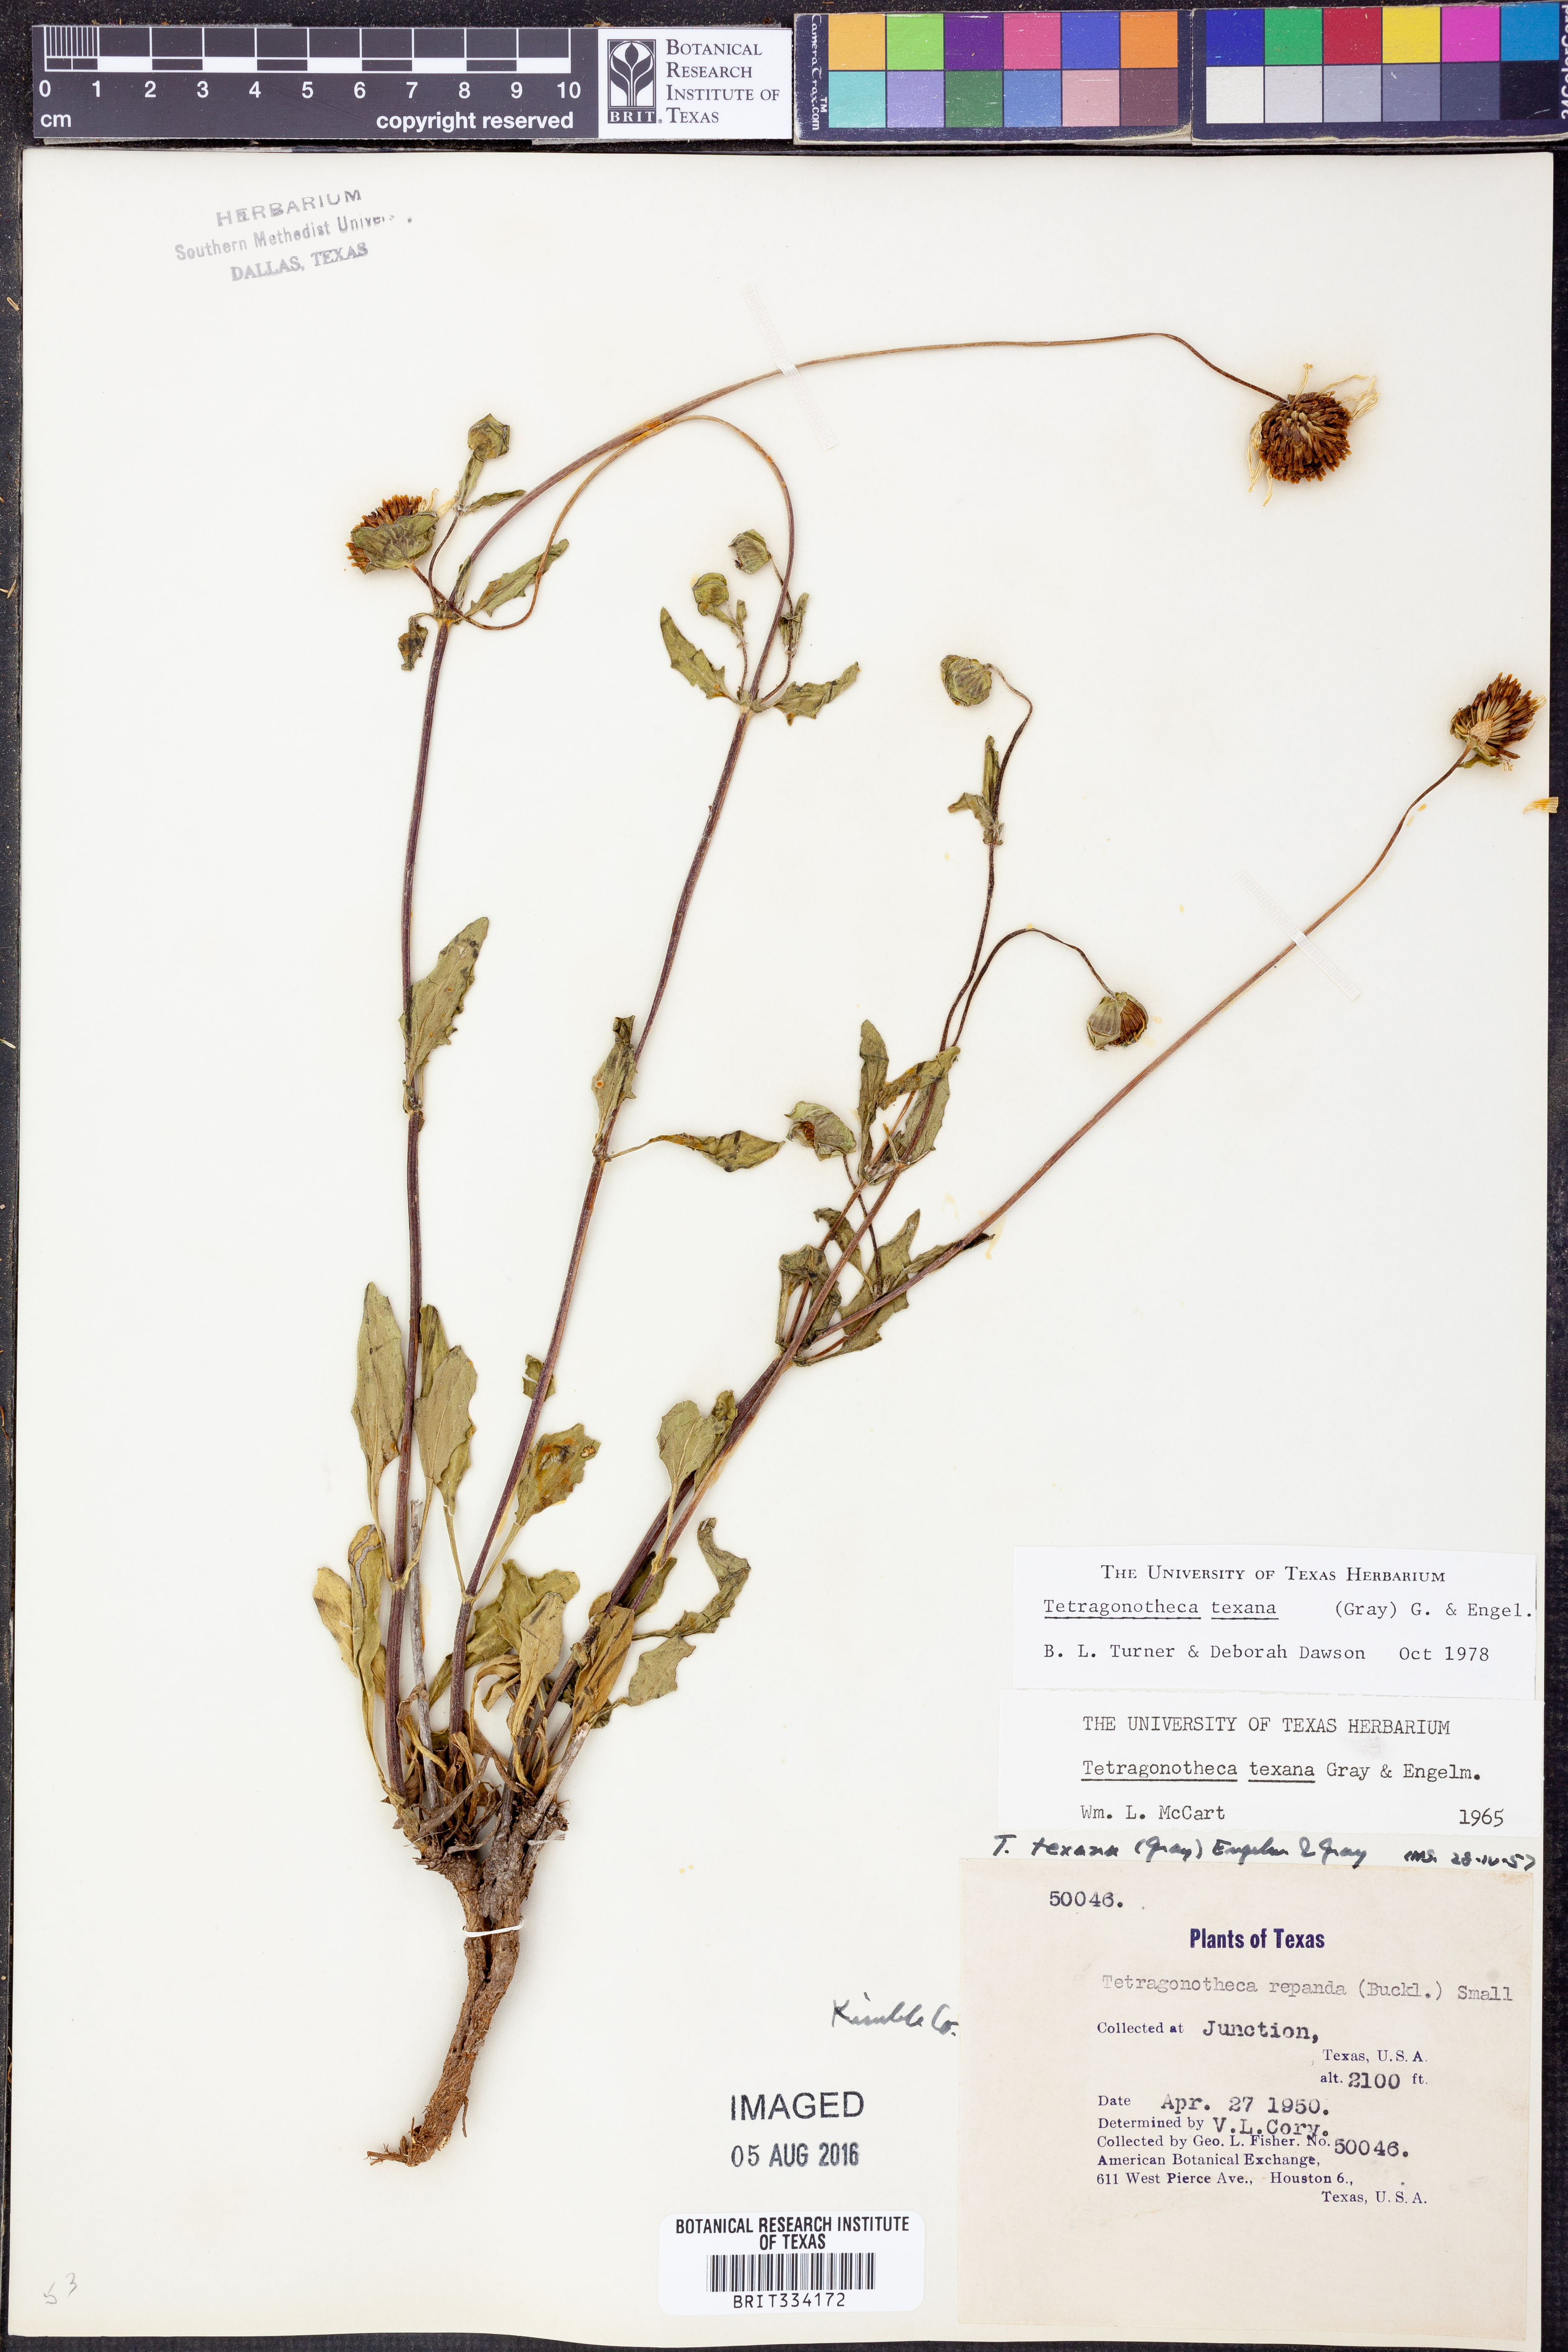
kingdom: Plantae
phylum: Tracheophyta
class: Magnoliopsida
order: Asterales
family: Asteraceae
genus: Tetragonotheca
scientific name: Tetragonotheca texana
